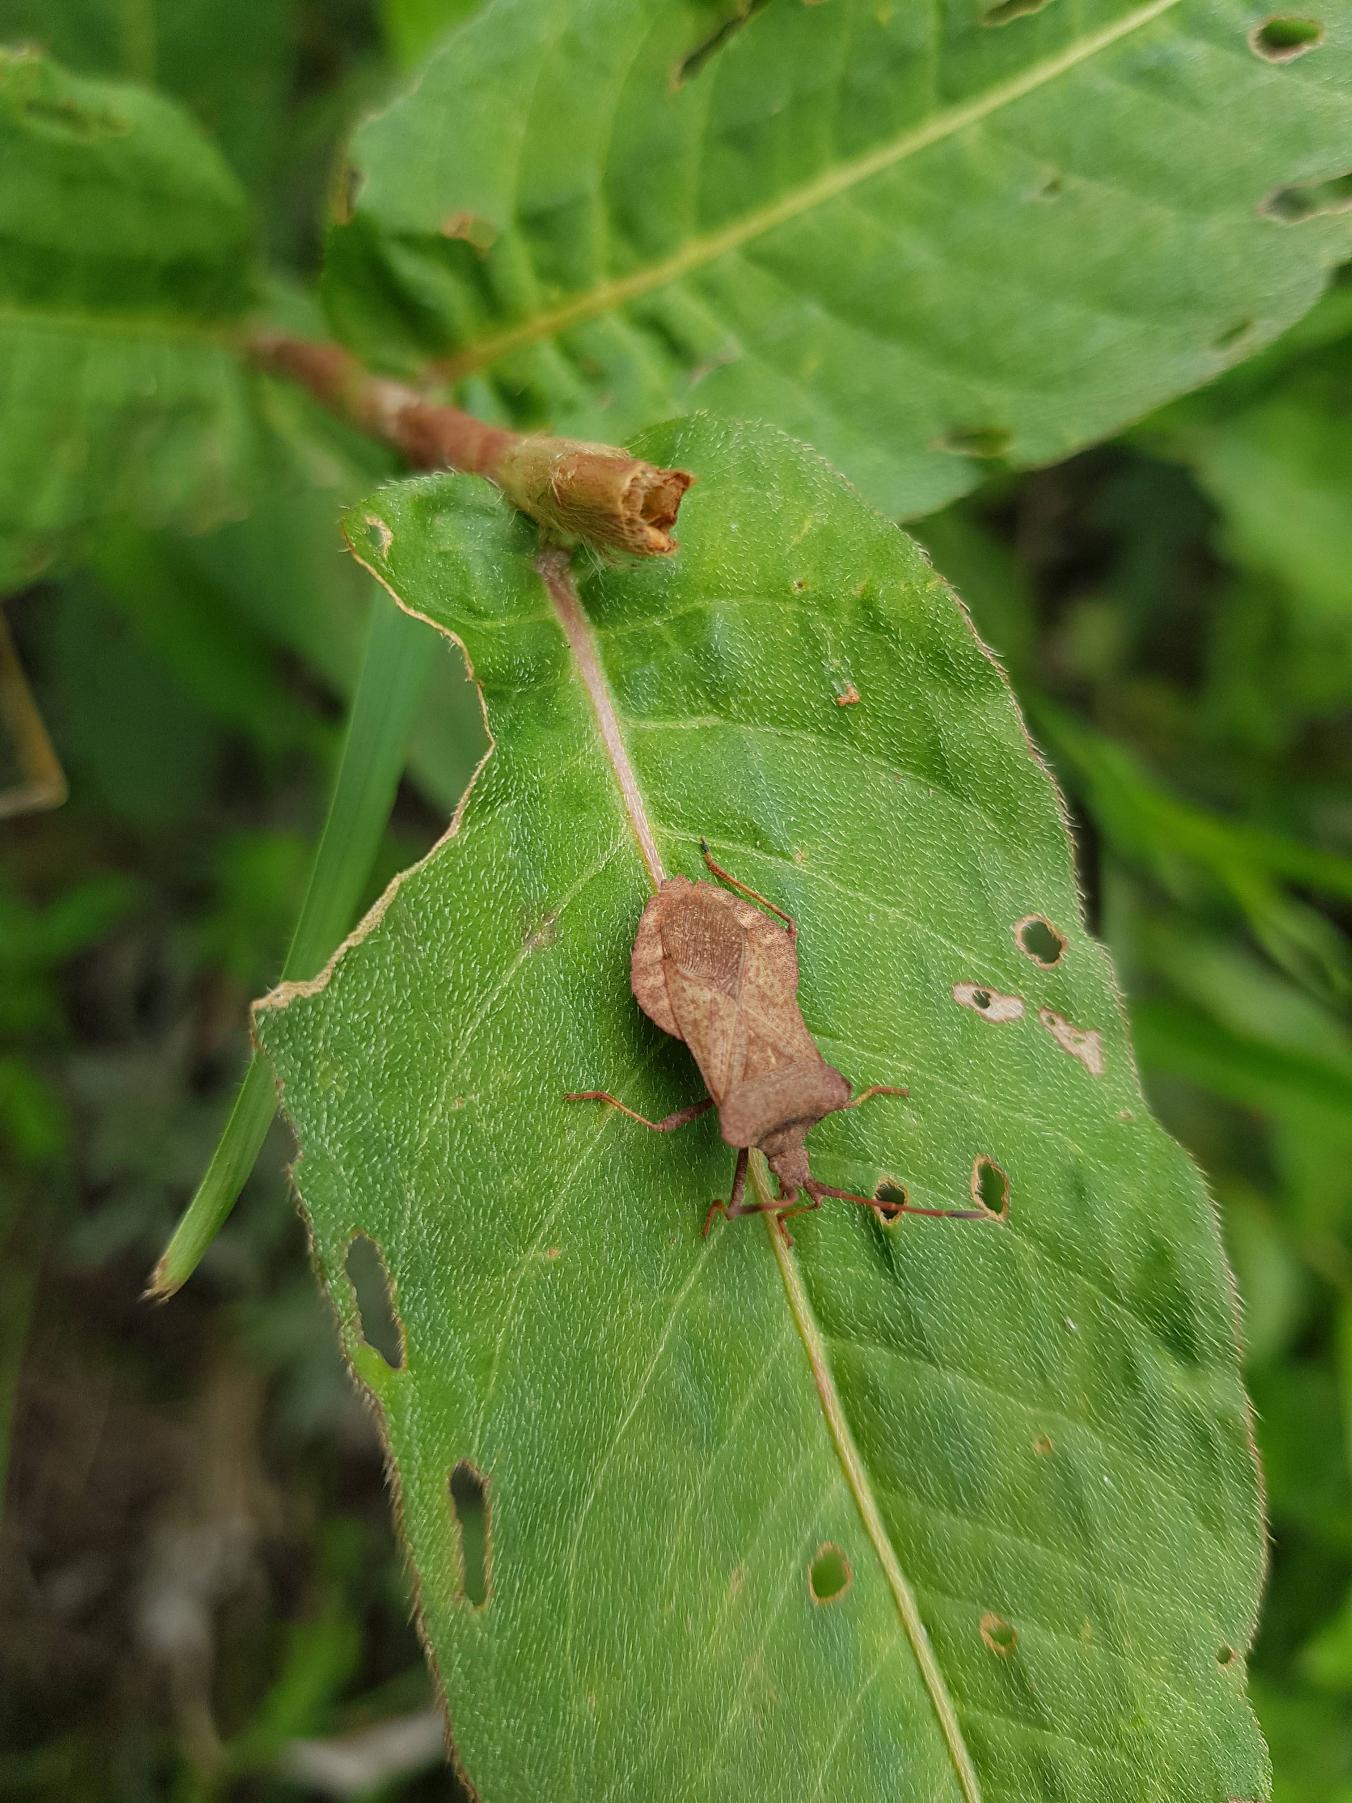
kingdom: Animalia
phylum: Arthropoda
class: Insecta
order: Hemiptera
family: Coreidae
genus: Coreus
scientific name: Coreus marginatus
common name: Skræppetæge
